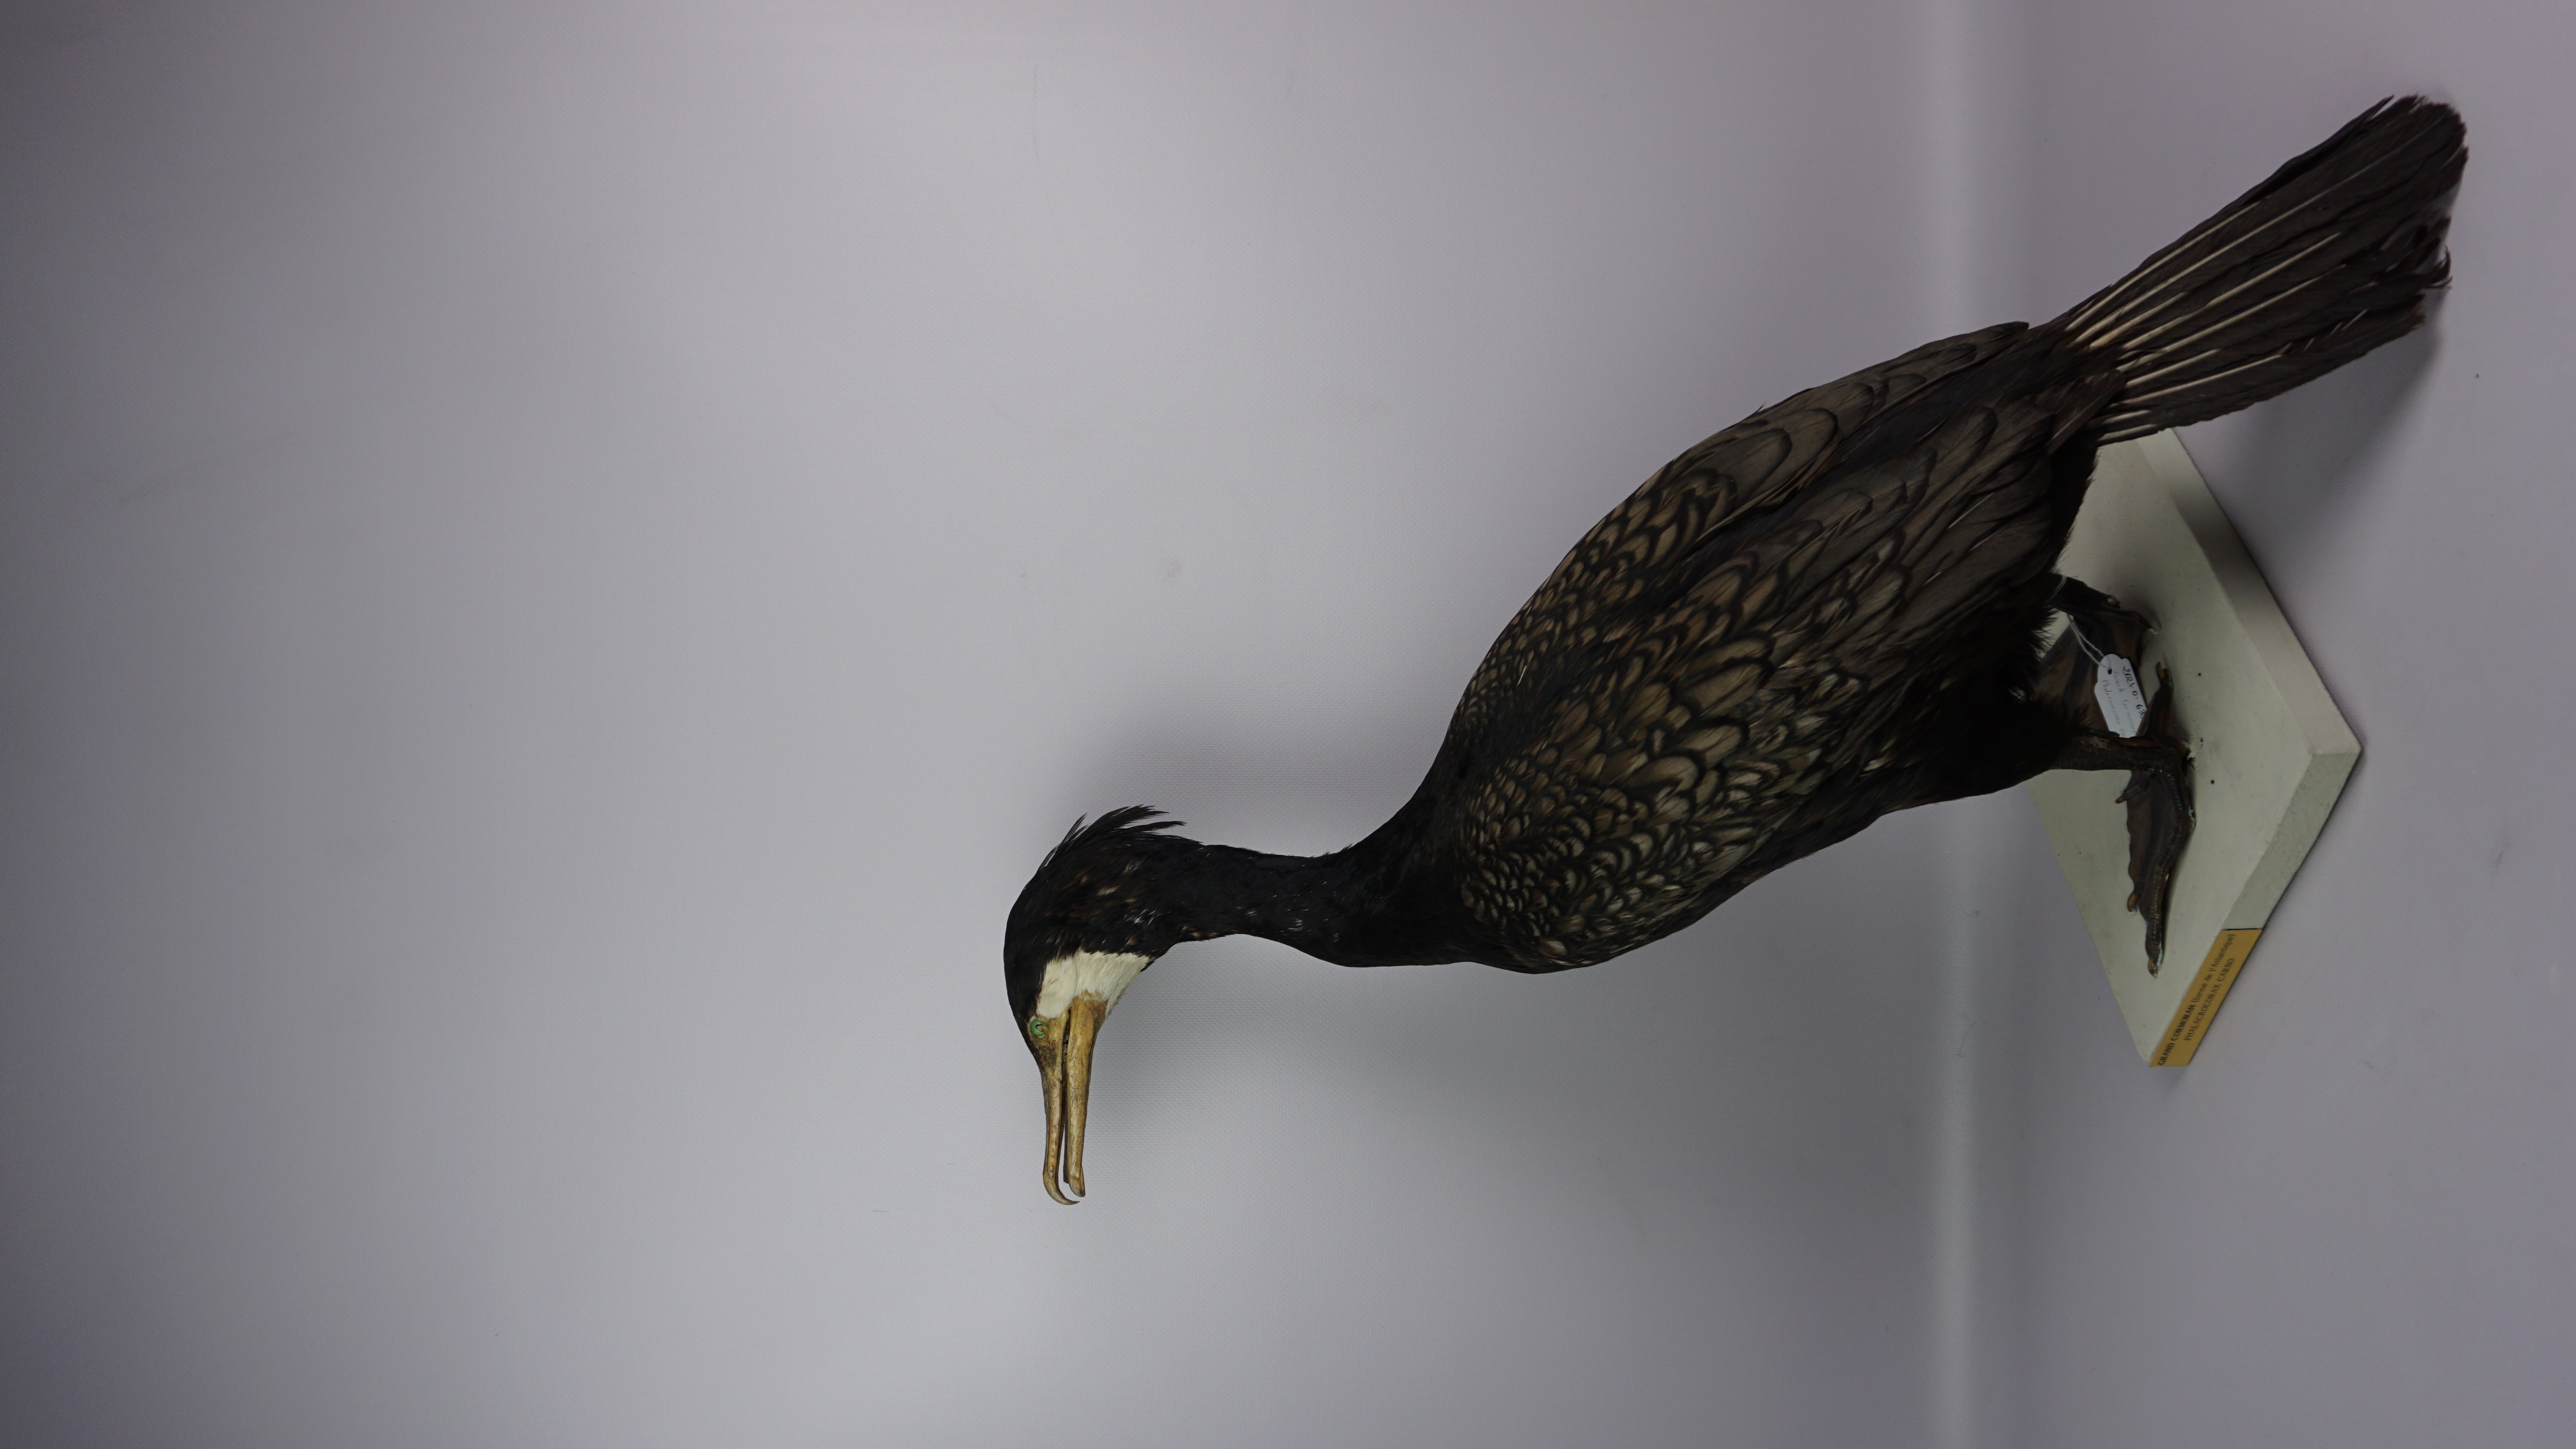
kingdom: Animalia
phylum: Chordata
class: Aves
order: Suliformes
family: Phalacrocoracidae
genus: Phalacrocorax
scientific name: Phalacrocorax carbo
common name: Great cormorant
